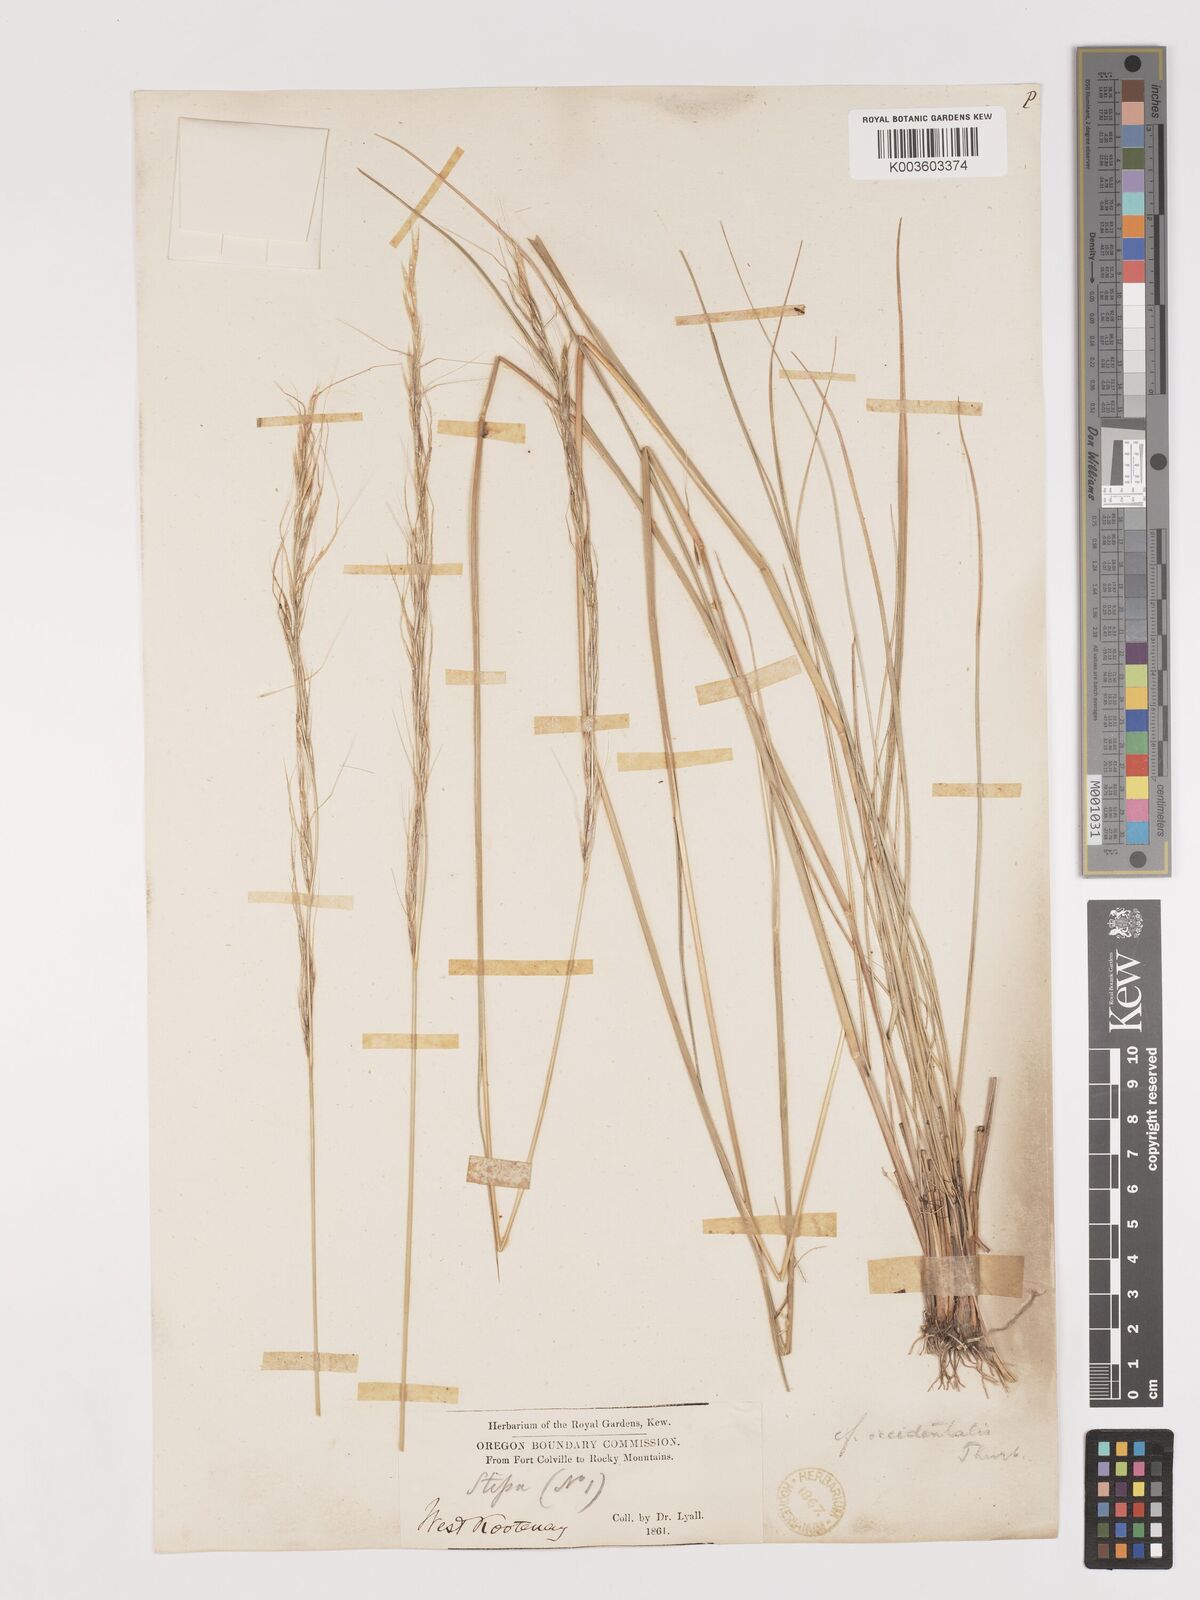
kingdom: Plantae
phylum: Tracheophyta
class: Liliopsida
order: Poales
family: Poaceae
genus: Eriocoma
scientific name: Eriocoma thurberiana
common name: Thurber's needlegrass
